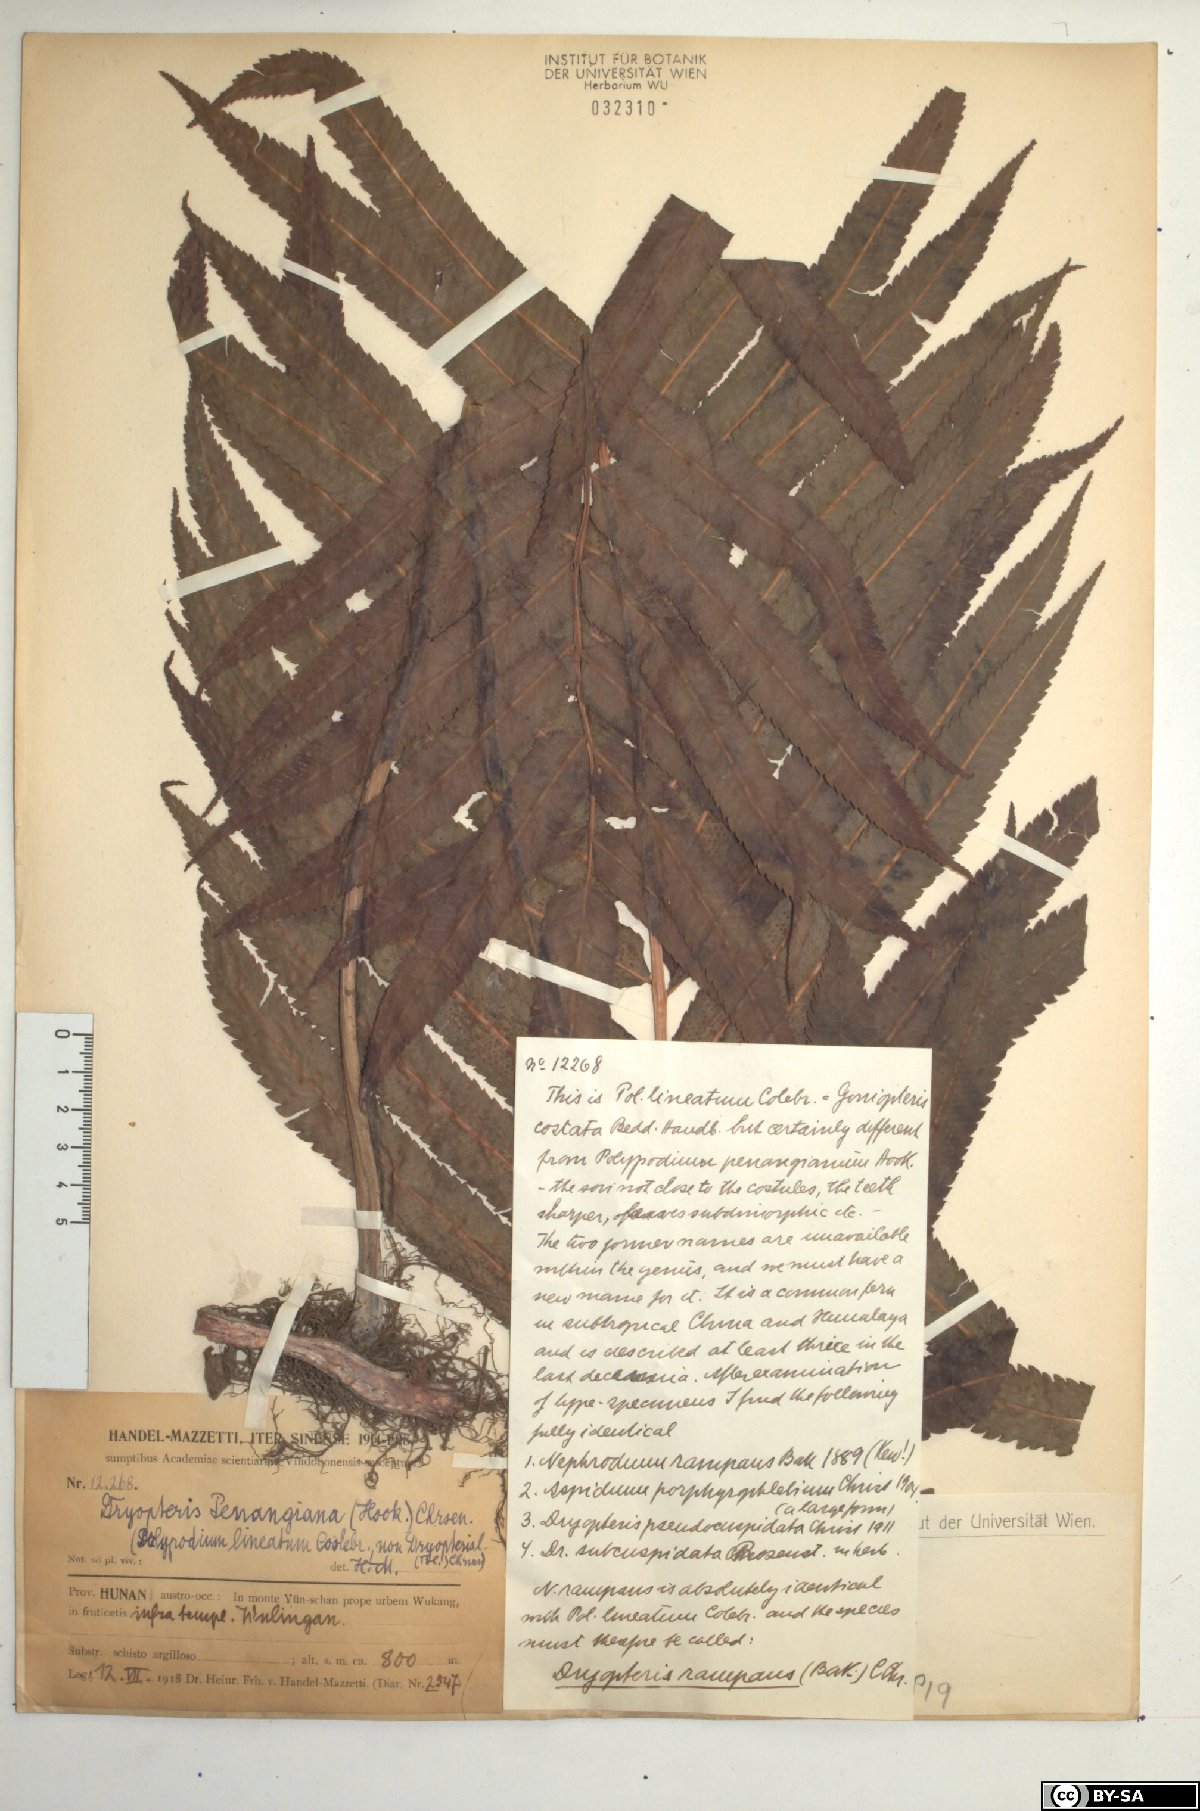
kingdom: Plantae
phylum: Tracheophyta
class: Polypodiopsida
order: Polypodiales
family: Thelypteridaceae
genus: Menisciopsis
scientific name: Menisciopsis penangiana
